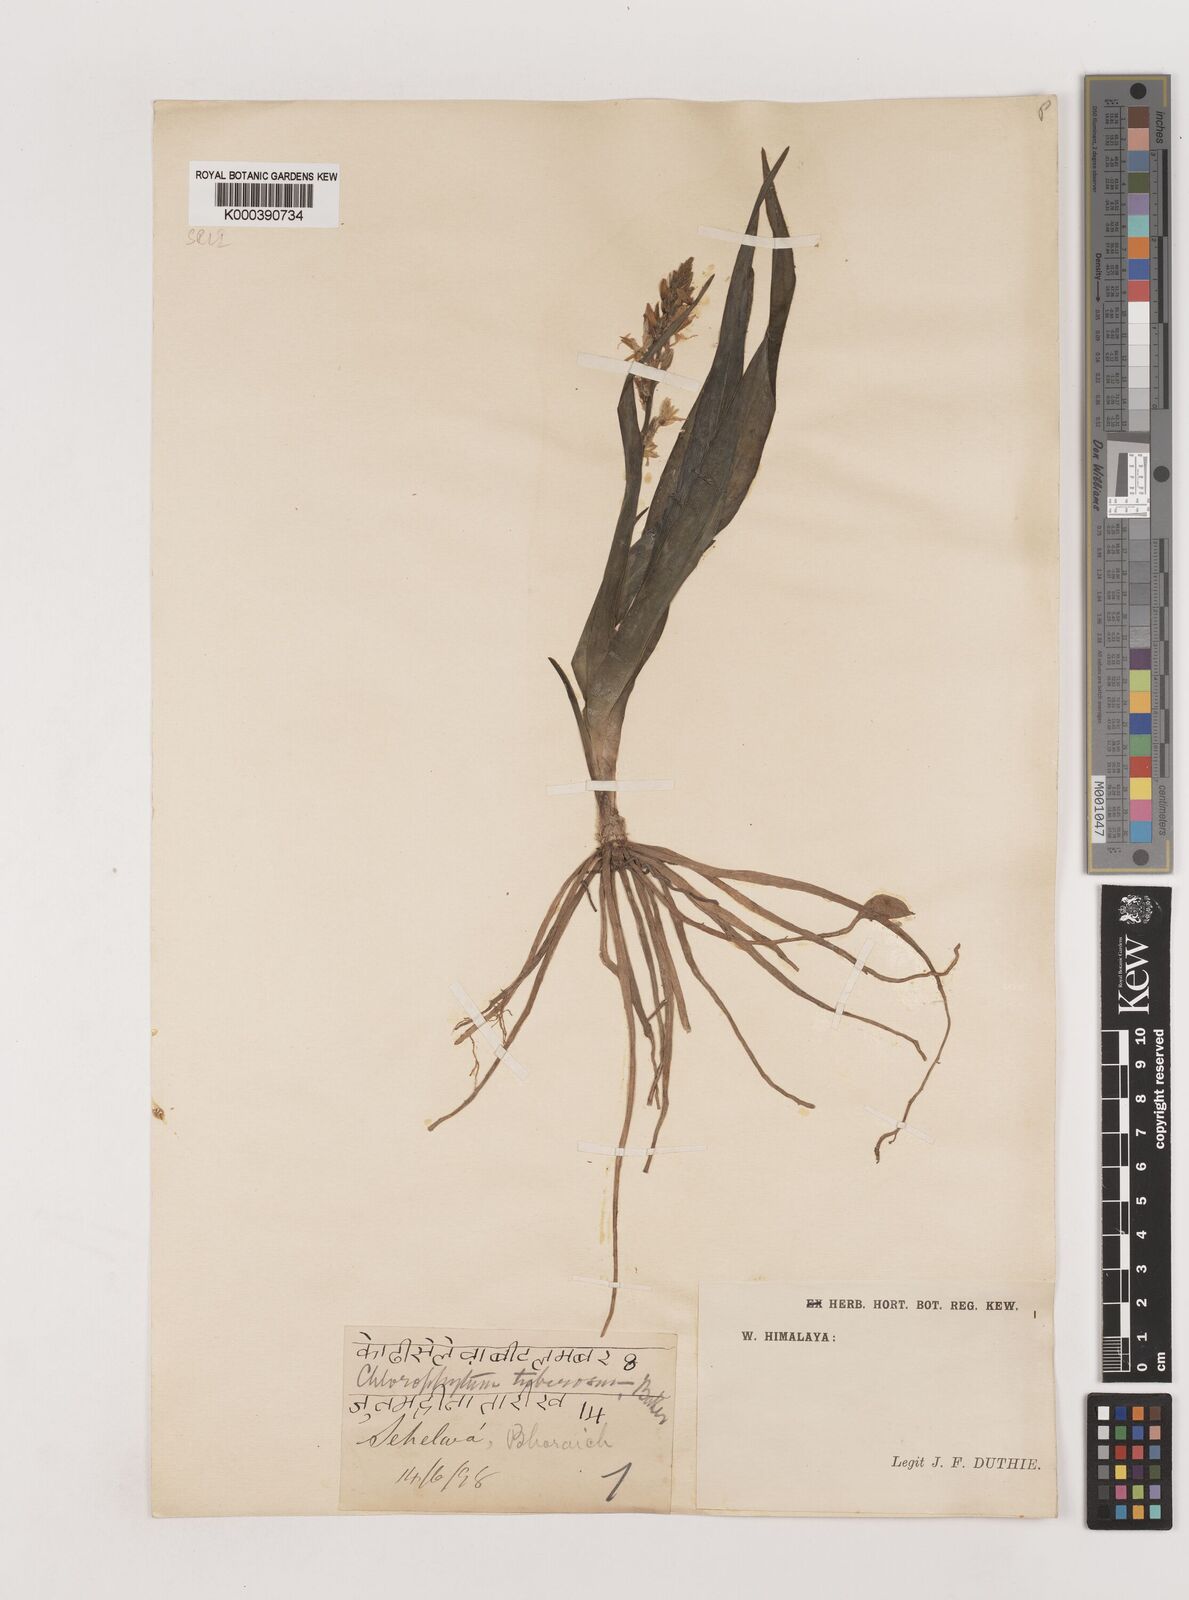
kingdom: Plantae
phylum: Tracheophyta
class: Liliopsida
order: Asparagales
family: Asparagaceae
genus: Chlorophytum
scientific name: Chlorophytum tuberosum
